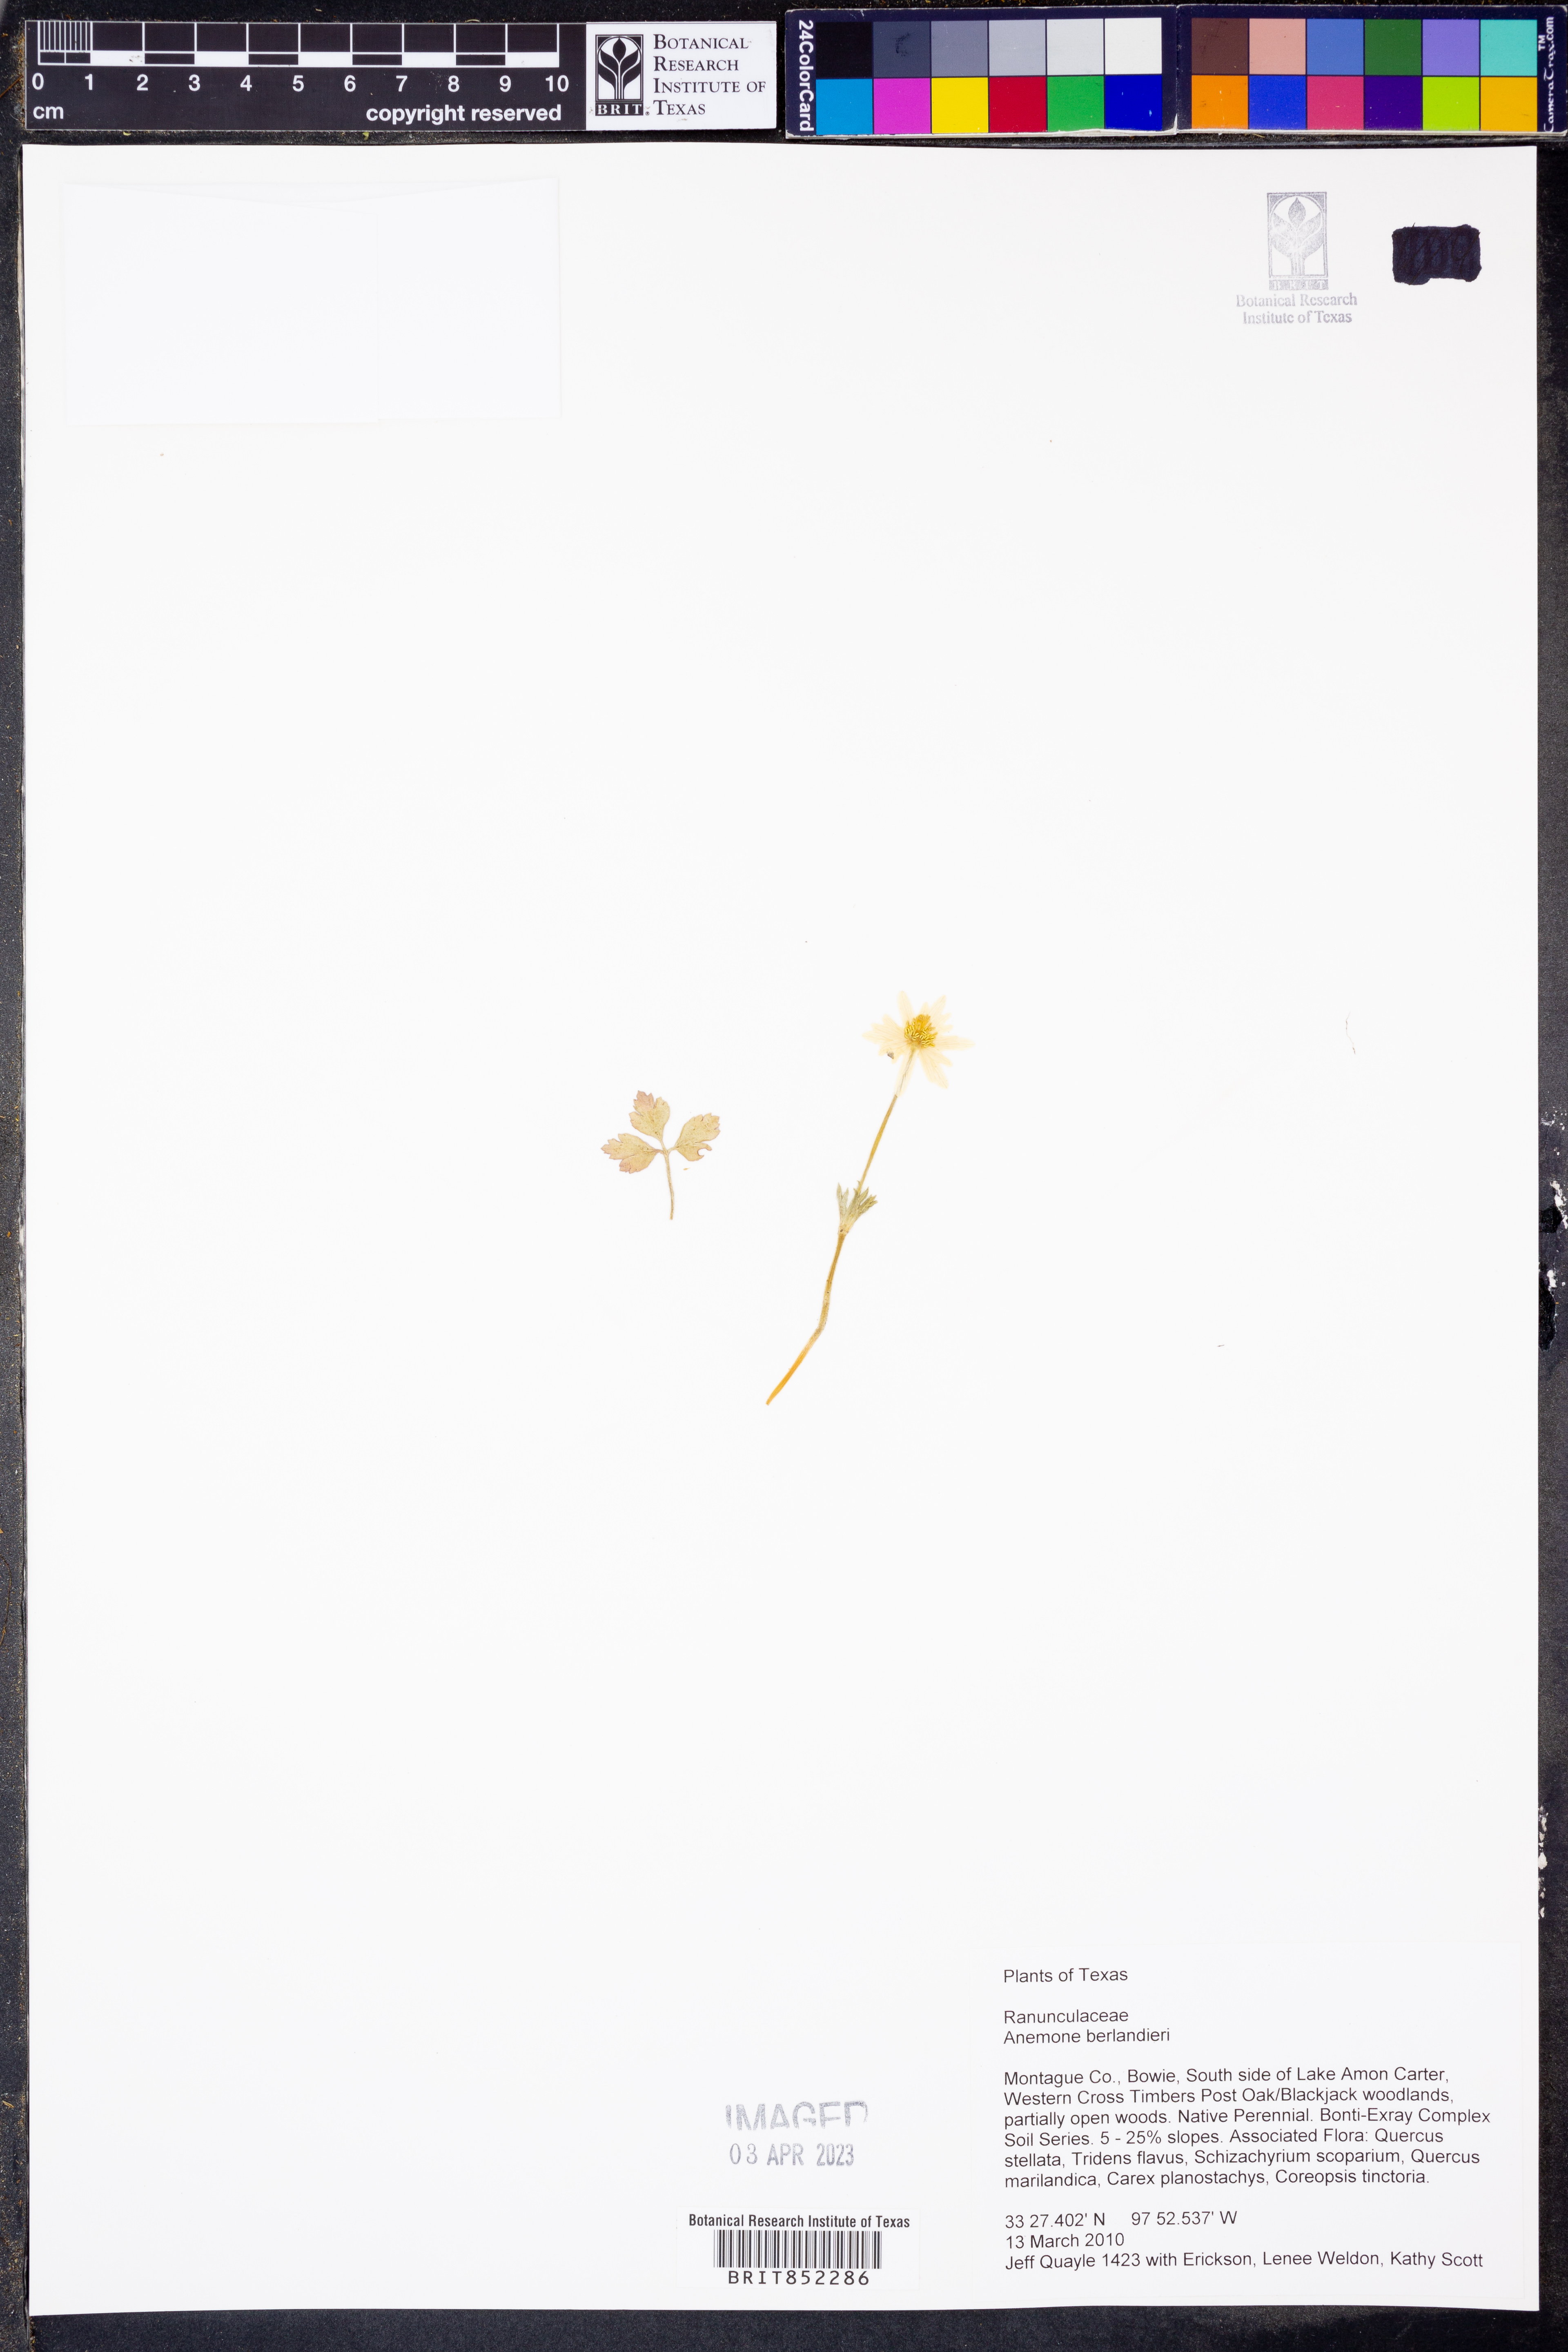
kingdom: Plantae
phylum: Tracheophyta
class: Magnoliopsida
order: Ranunculales
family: Ranunculaceae
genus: Anemone
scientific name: Anemone berlandieri
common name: Ten-petal anemone
